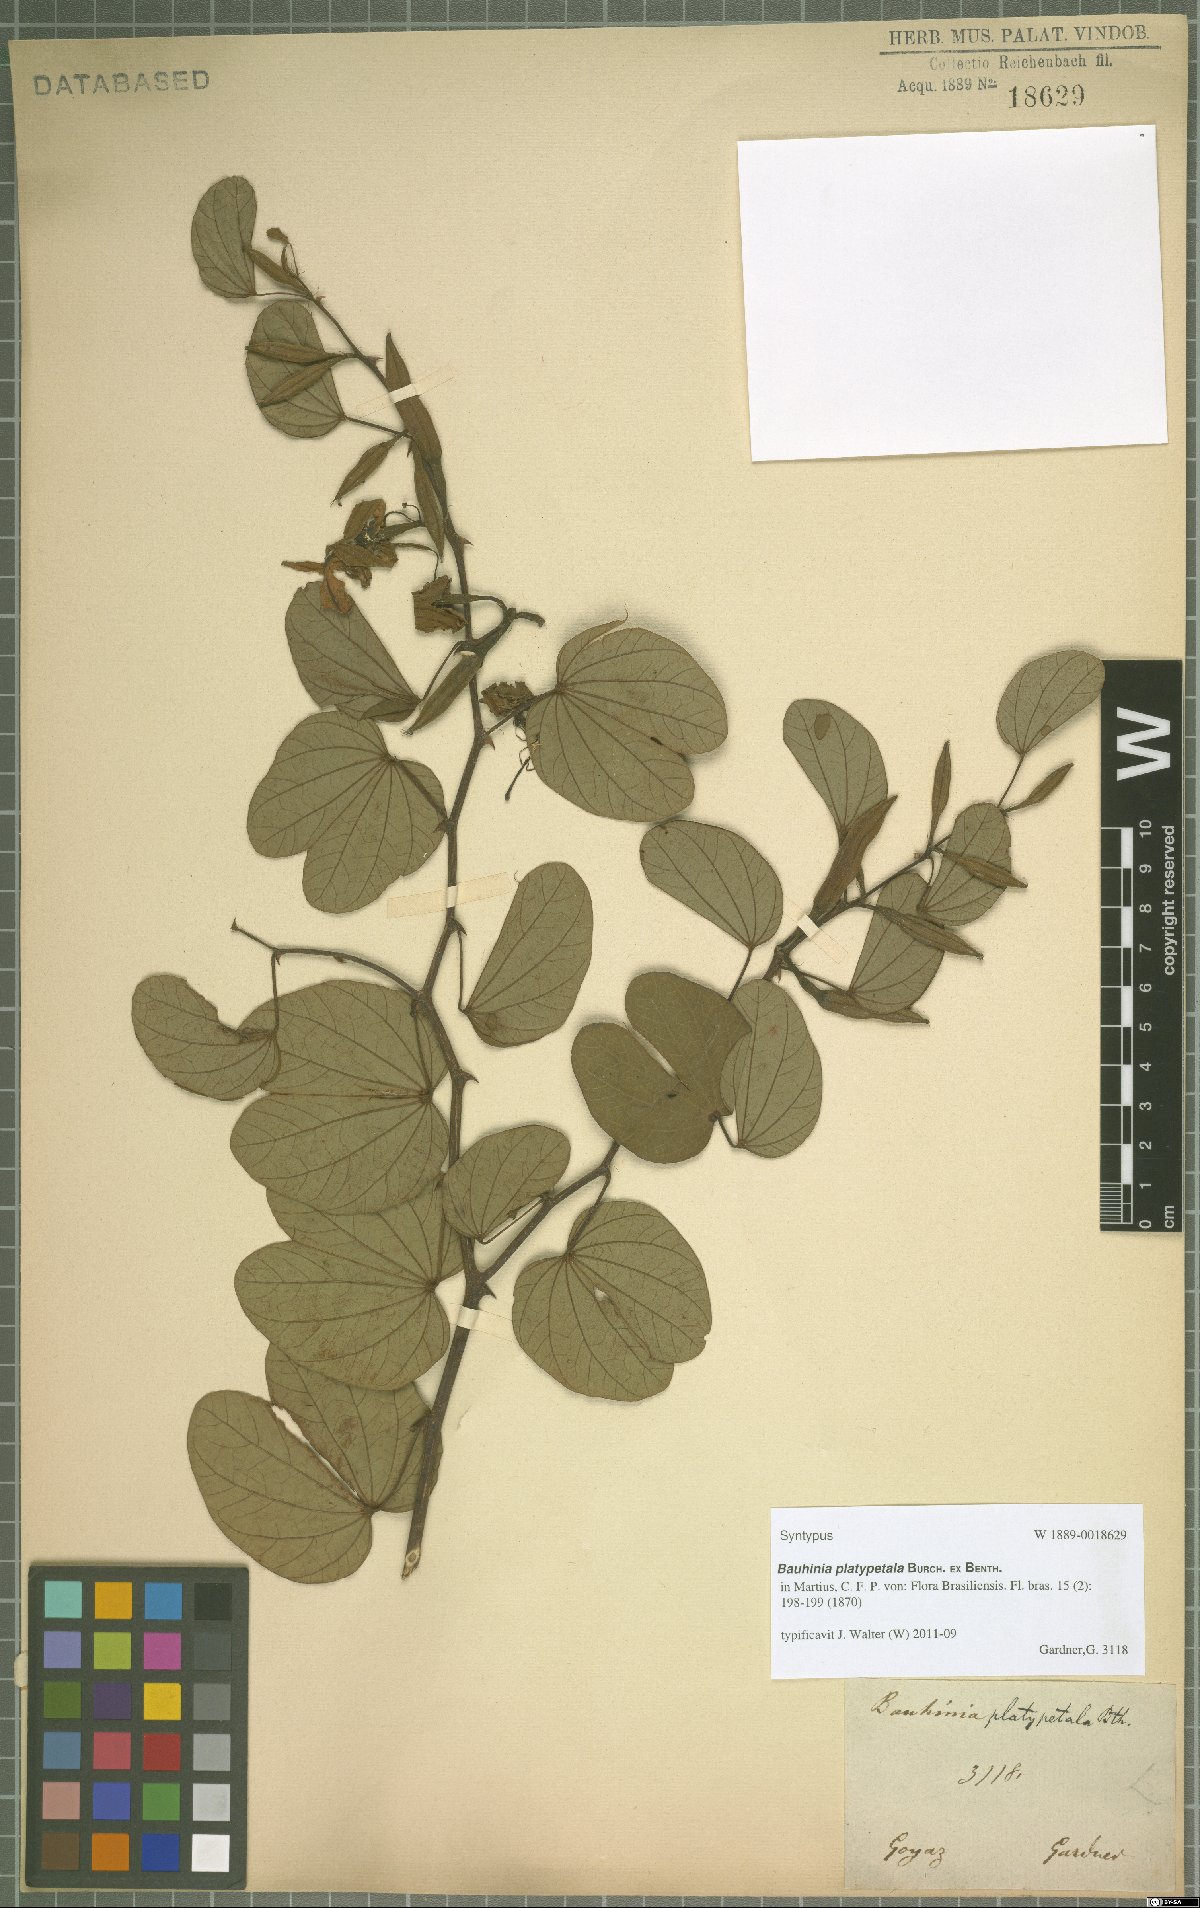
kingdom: Plantae
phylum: Tracheophyta
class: Magnoliopsida
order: Fabales
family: Fabaceae
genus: Bauhinia
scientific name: Bauhinia platypetala
